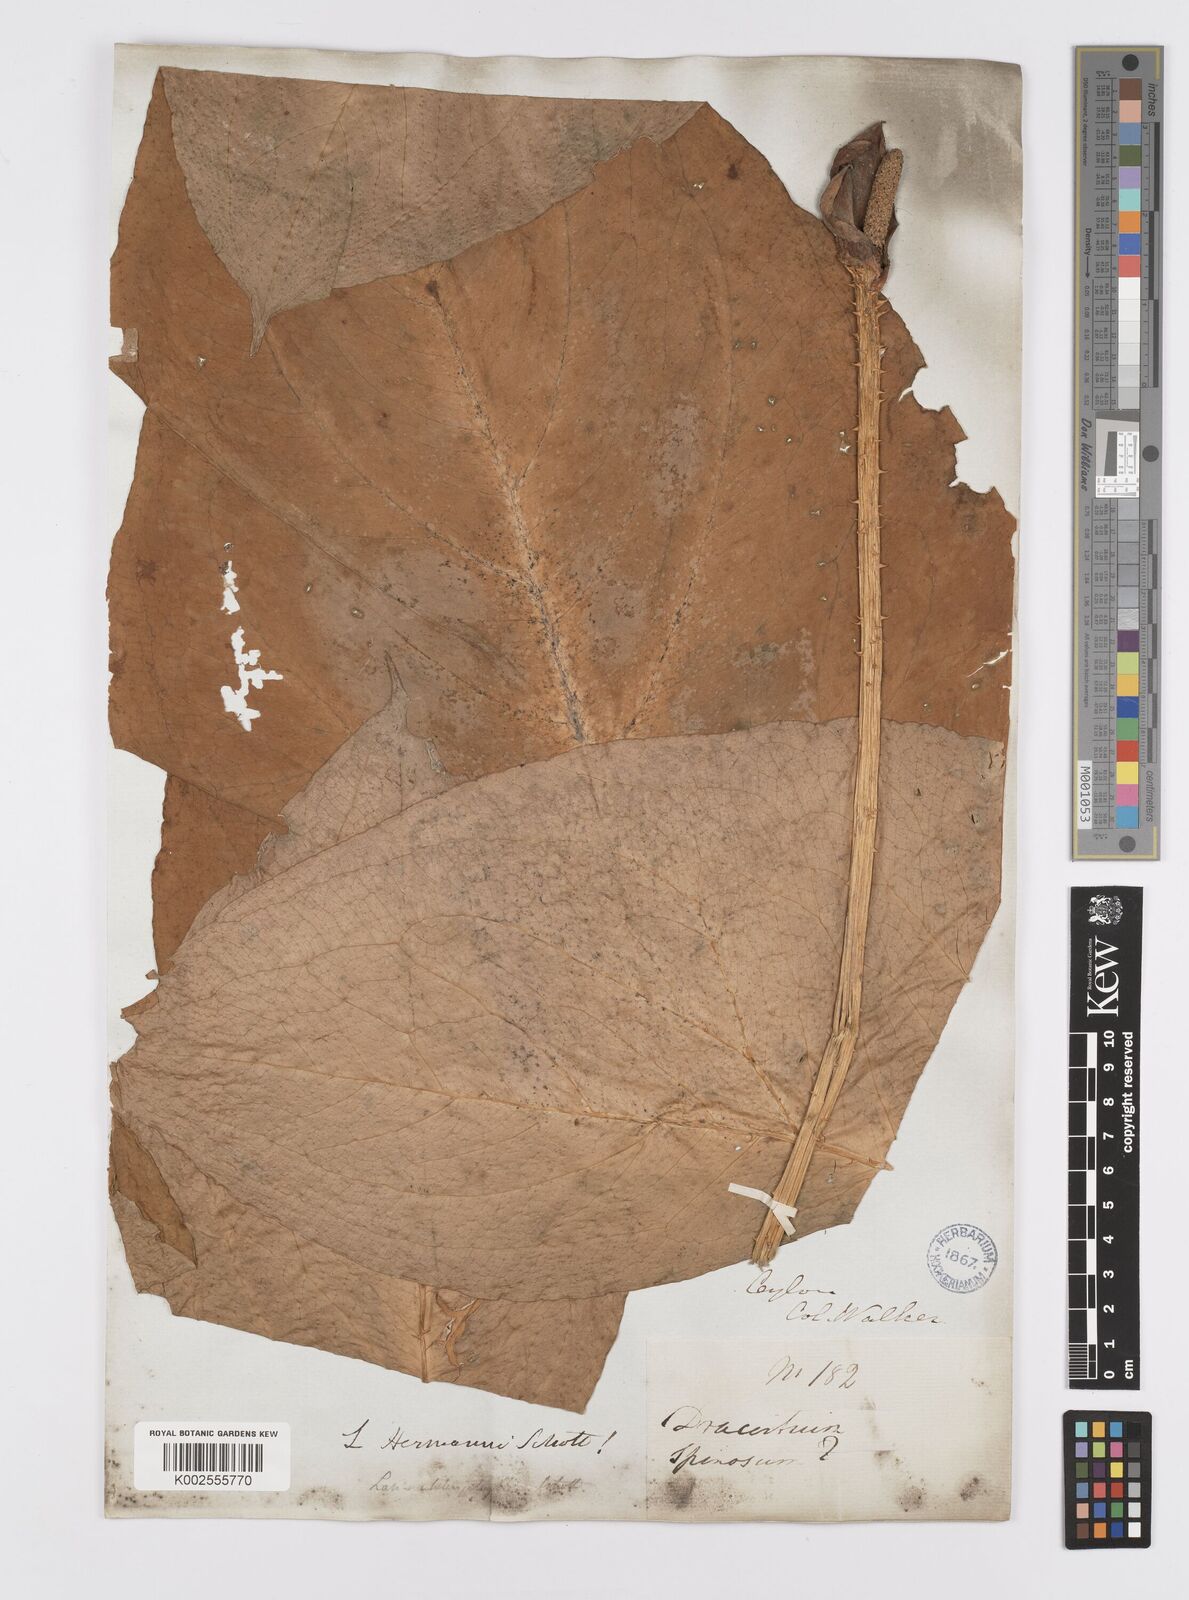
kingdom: Plantae
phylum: Tracheophyta
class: Liliopsida
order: Alismatales
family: Araceae
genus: Lasia
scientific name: Lasia spinosa
